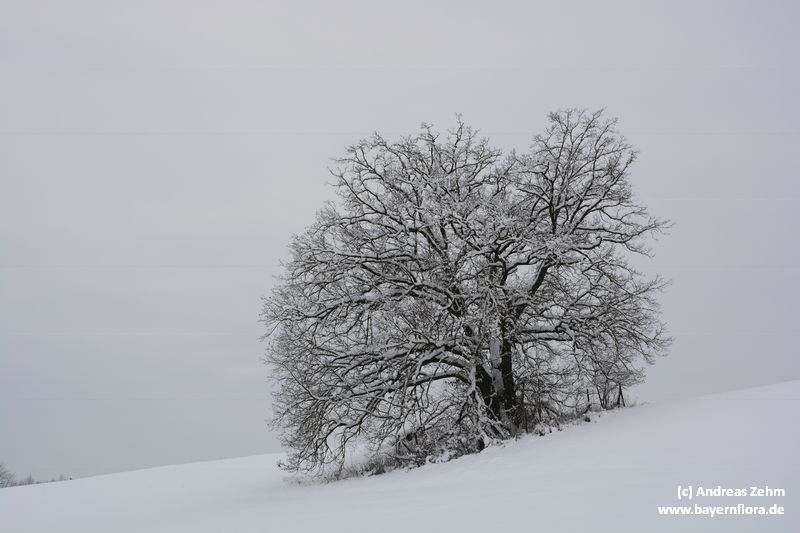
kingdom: Plantae
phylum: Tracheophyta
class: Magnoliopsida
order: Fagales
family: Fagaceae
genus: Quercus
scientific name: Quercus robur
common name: Pedunculate oak
